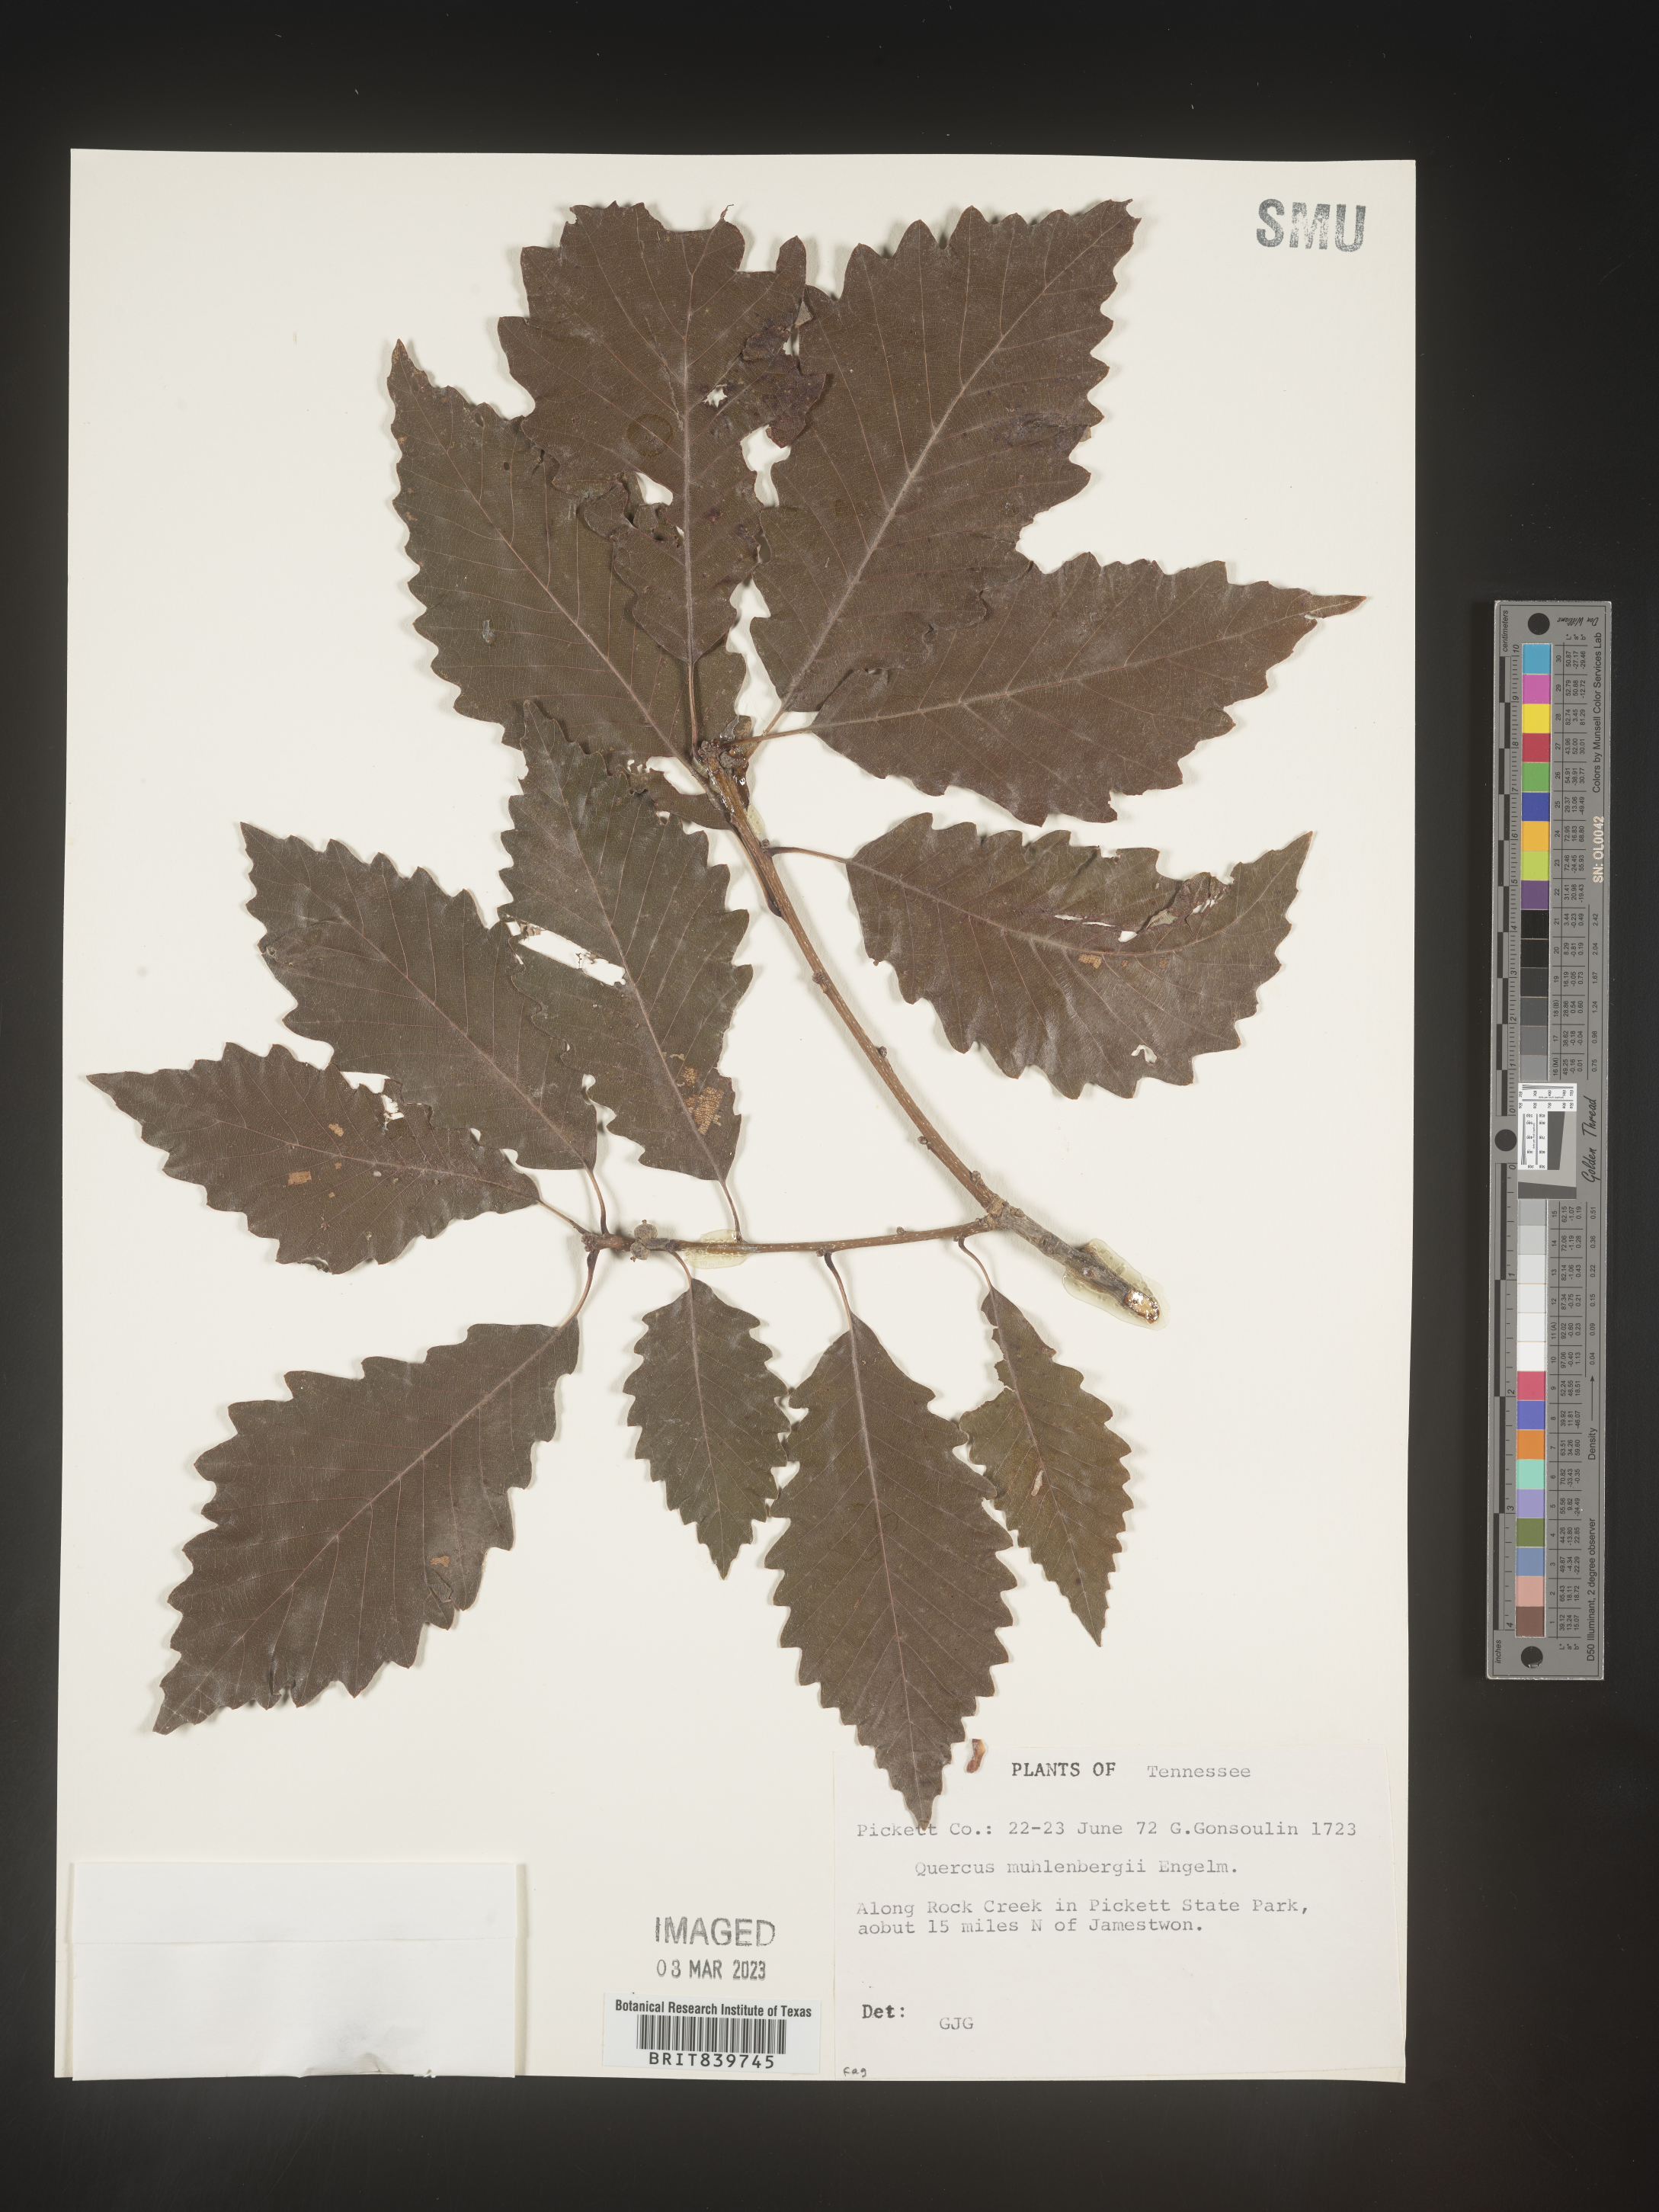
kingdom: Plantae
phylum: Tracheophyta
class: Magnoliopsida
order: Fagales
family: Fagaceae
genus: Quercus
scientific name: Quercus muehlenbergii
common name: Chinkapin oak
